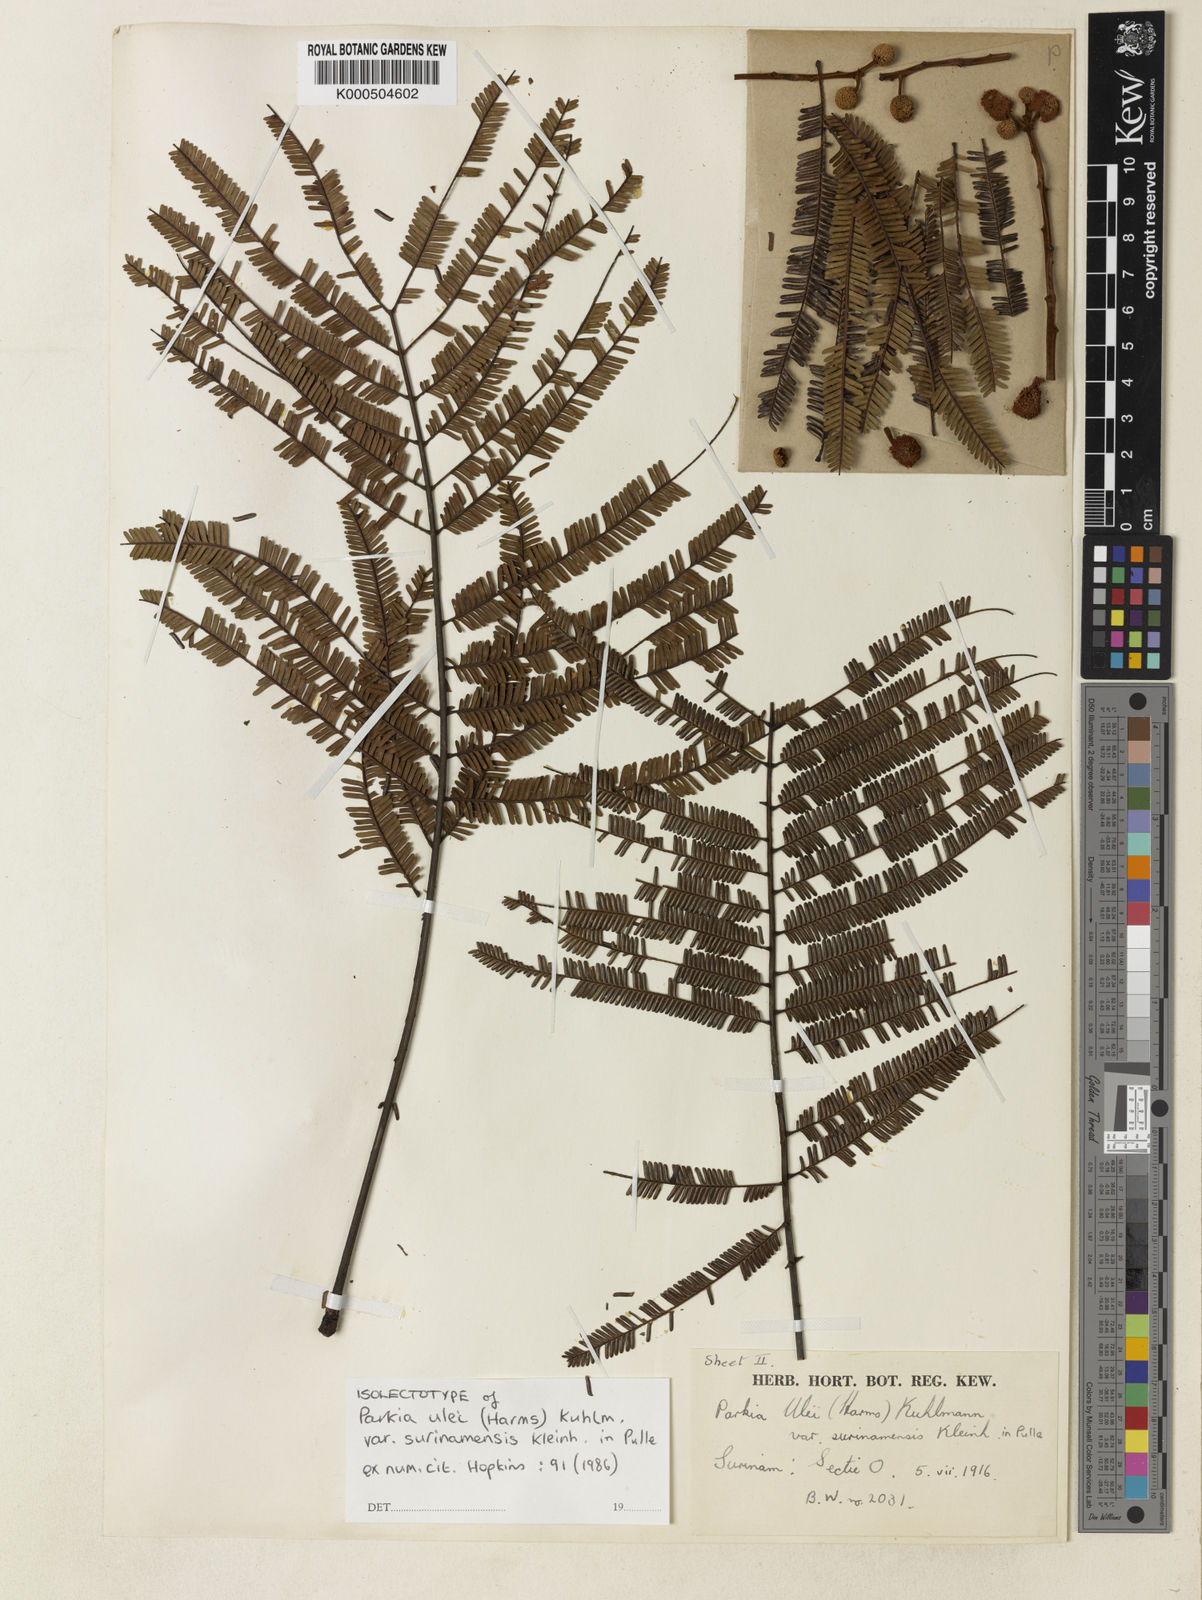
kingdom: Plantae
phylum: Tracheophyta
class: Magnoliopsida
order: Fabales
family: Fabaceae
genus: Parkia
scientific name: Parkia ulei
